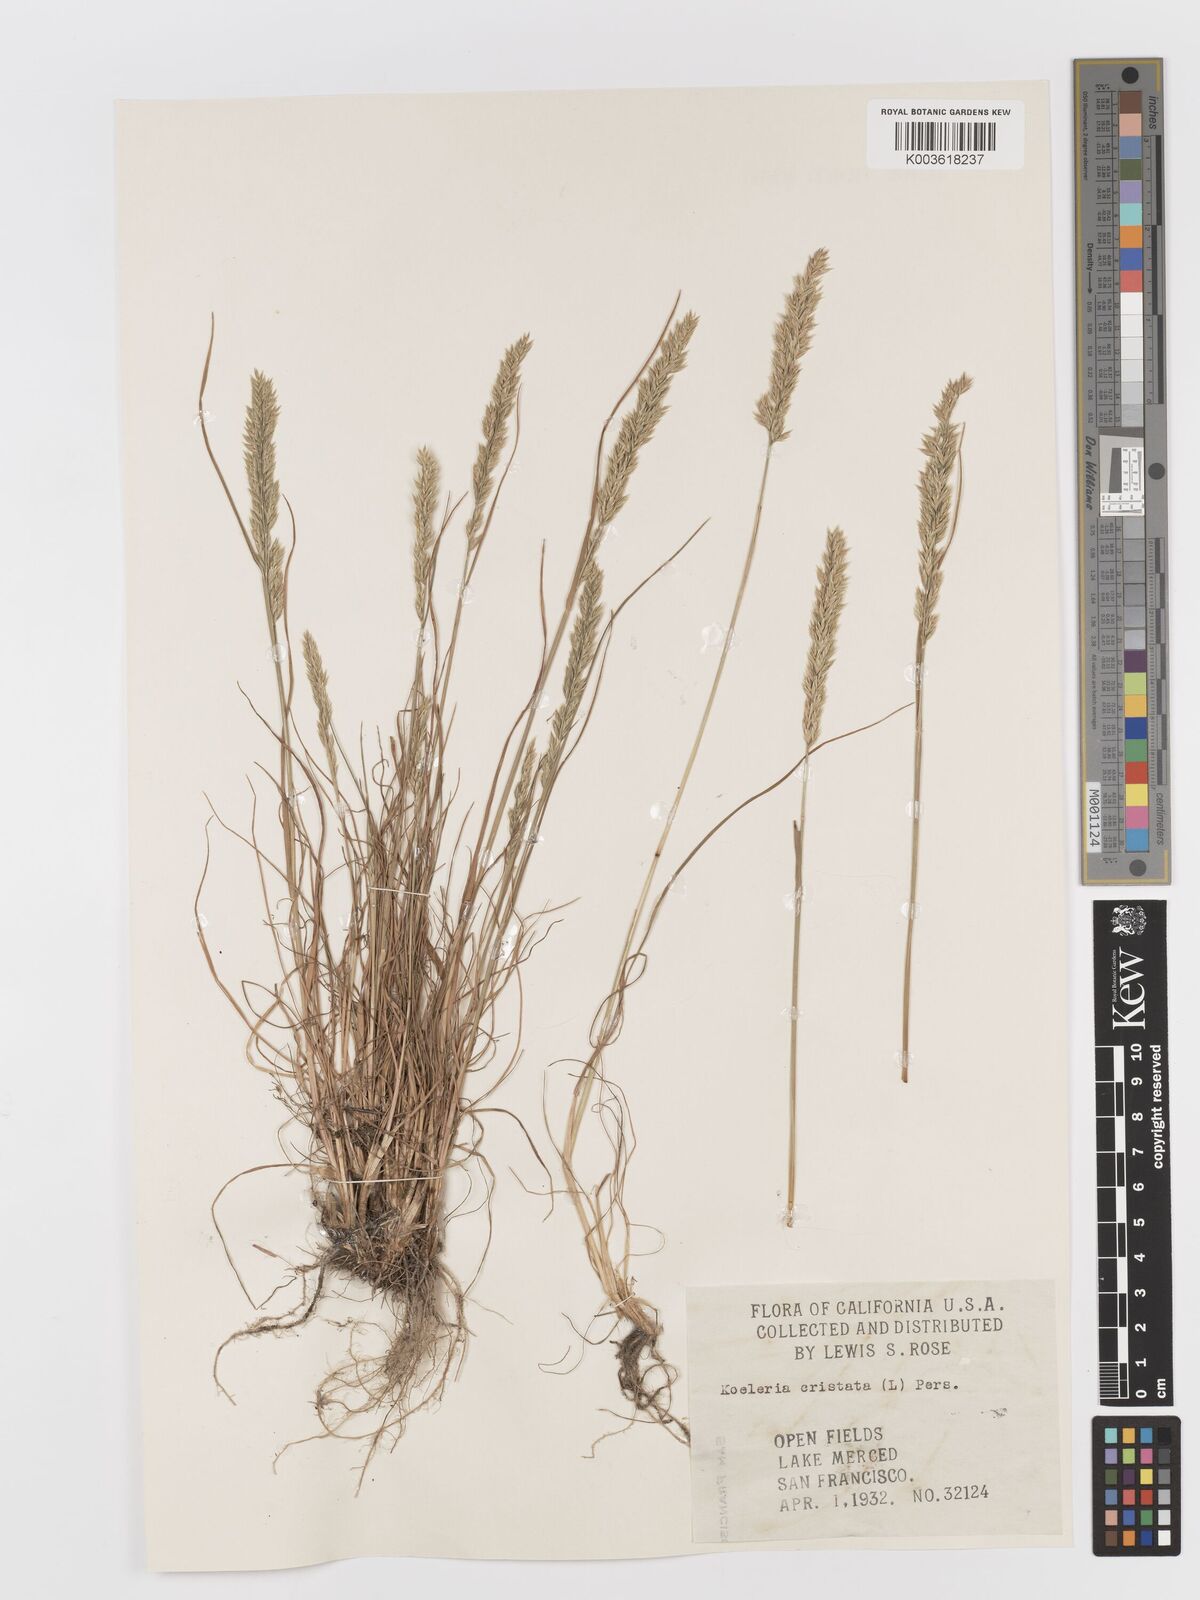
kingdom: Plantae
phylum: Tracheophyta
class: Liliopsida
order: Poales
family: Poaceae
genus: Koeleria
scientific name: Koeleria macrantha
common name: Crested hair-grass
